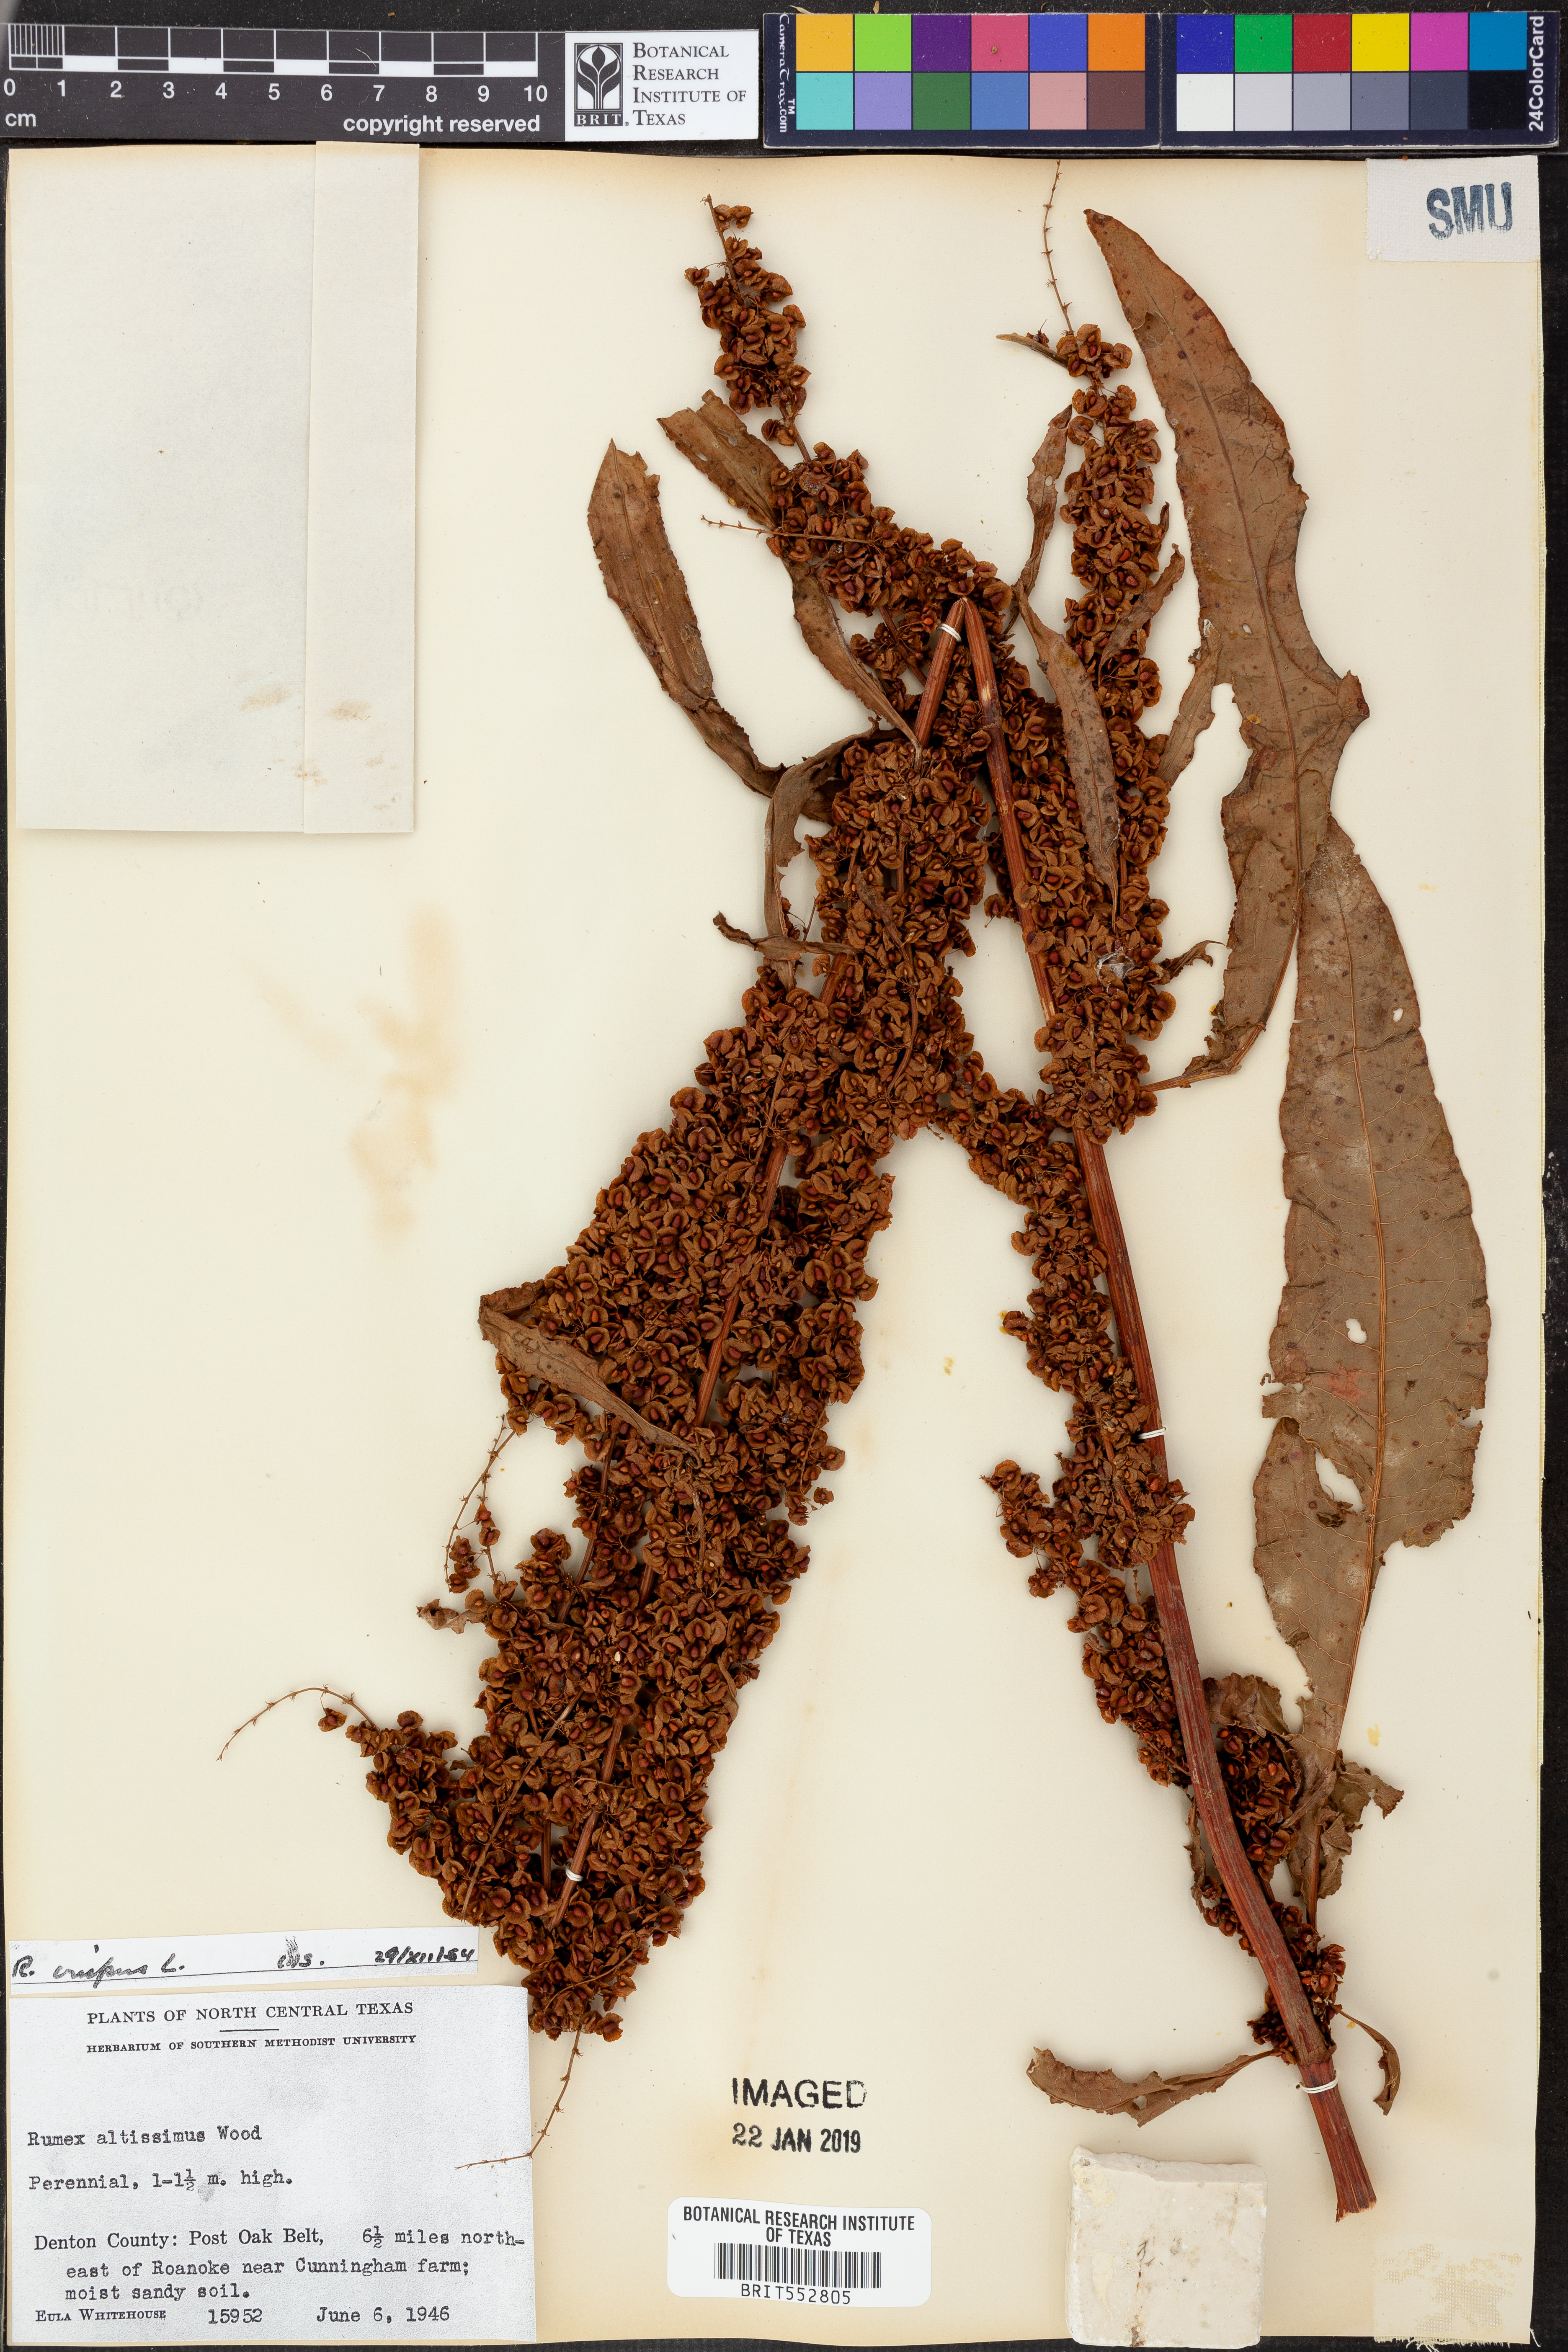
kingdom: Plantae
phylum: Tracheophyta
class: Magnoliopsida
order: Caryophyllales
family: Polygonaceae
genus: Rumex
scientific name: Rumex crispus
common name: Curled dock
